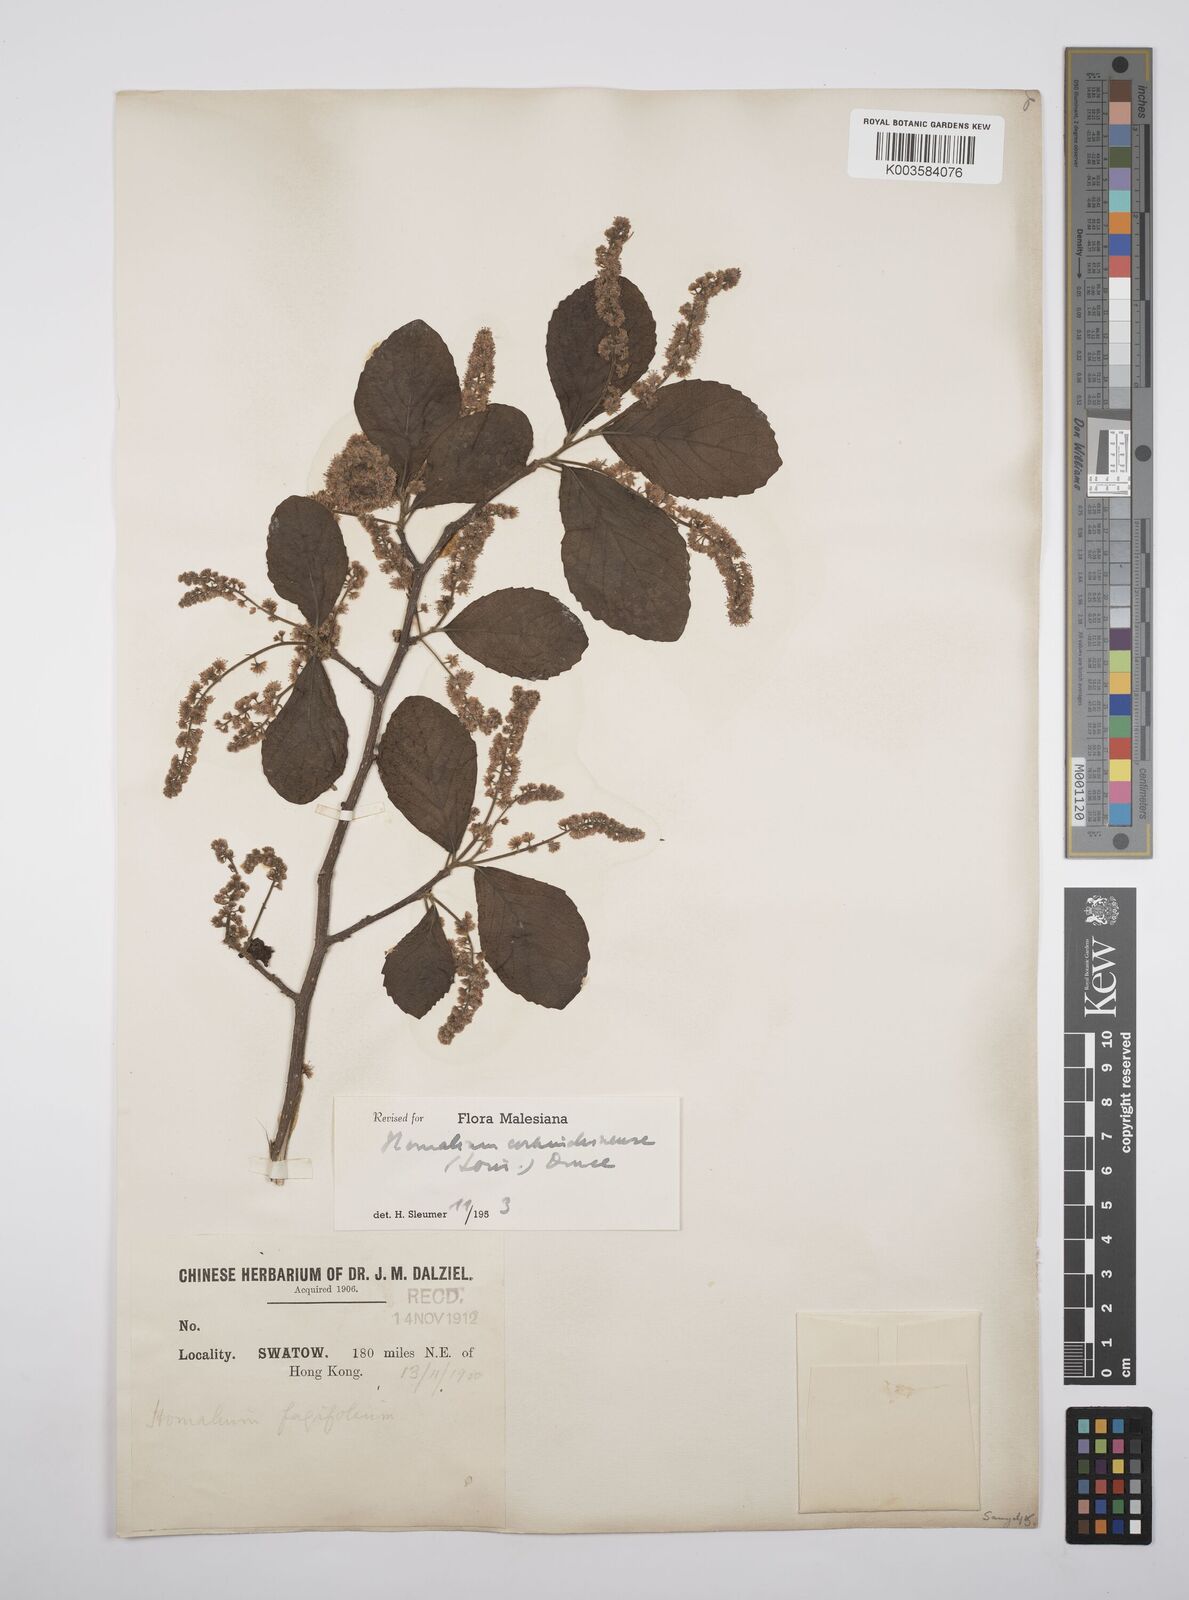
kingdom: Plantae
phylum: Tracheophyta
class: Magnoliopsida
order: Malpighiales
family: Salicaceae
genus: Homalium
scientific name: Homalium cochinchinensis
